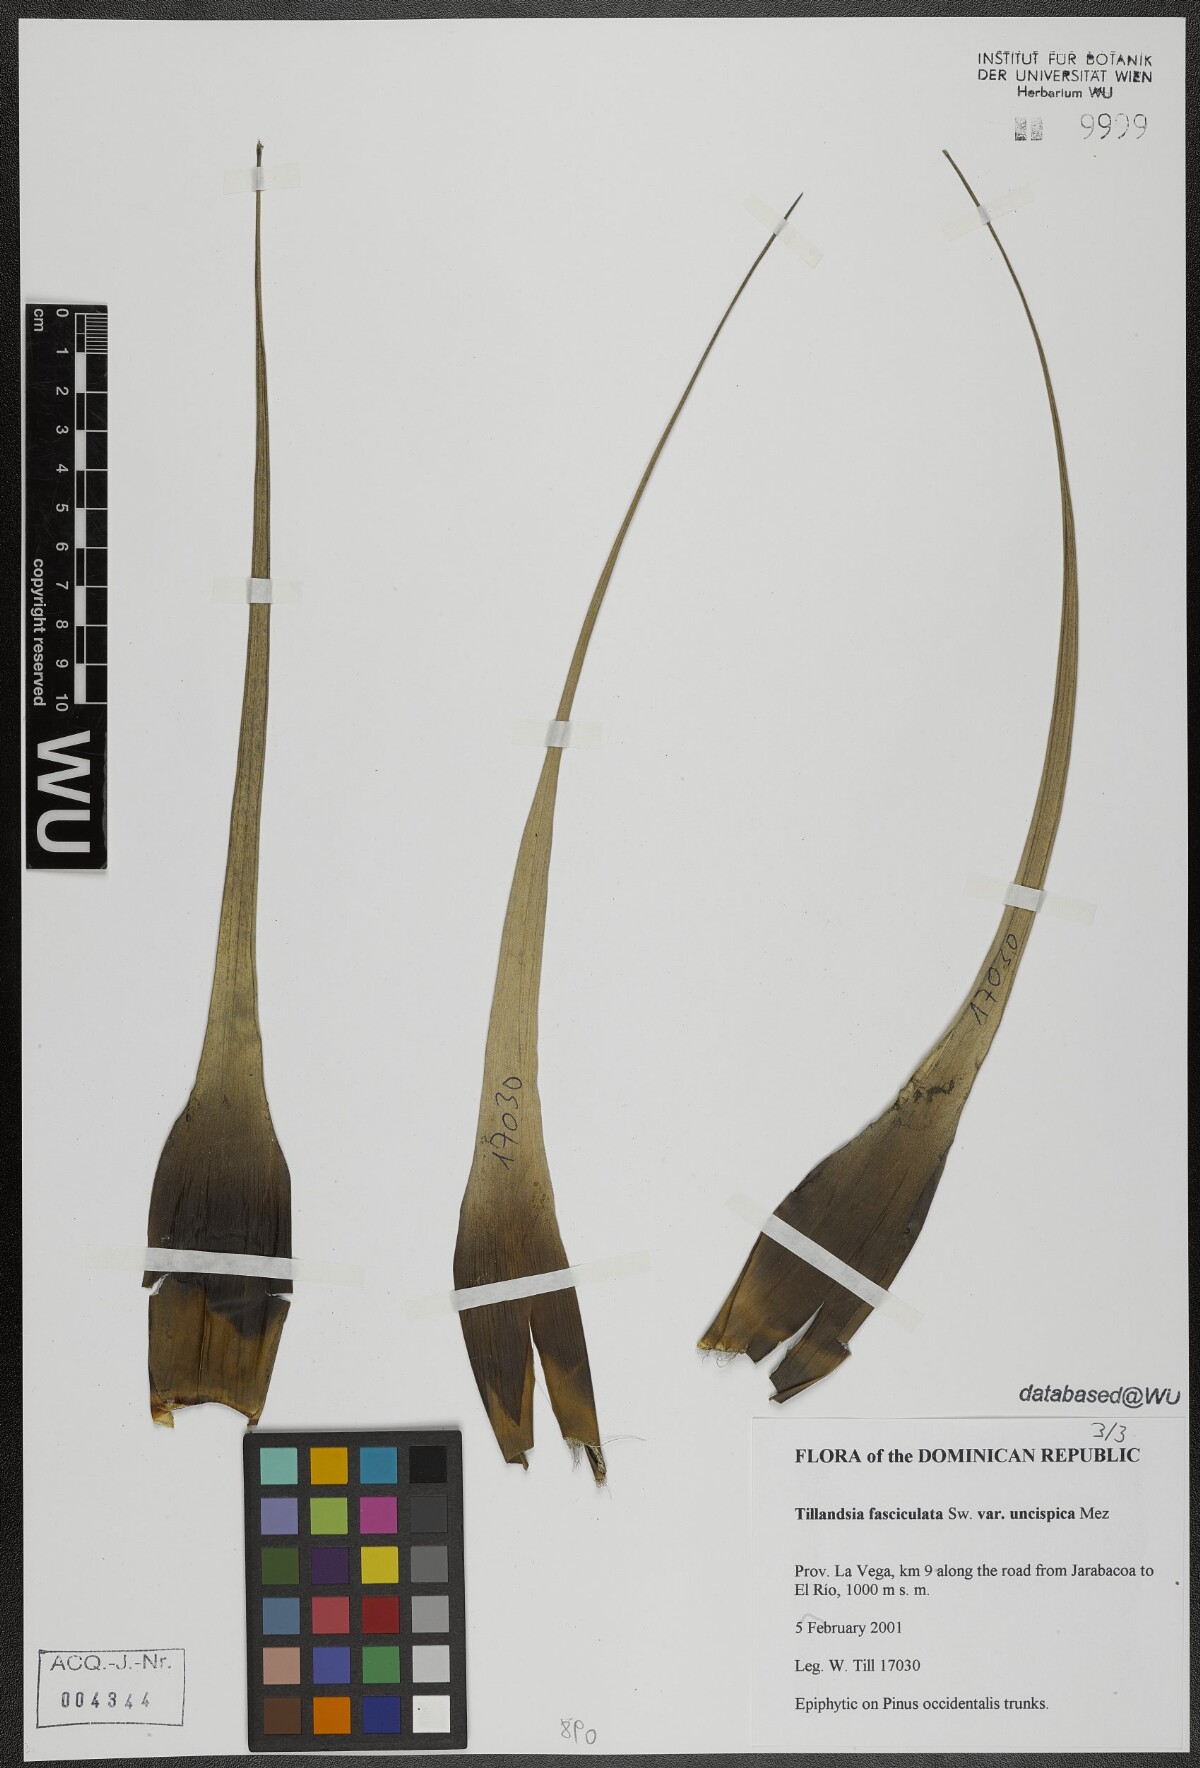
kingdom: Plantae
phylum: Tracheophyta
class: Liliopsida
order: Poales
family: Bromeliaceae
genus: Tillandsia
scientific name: Tillandsia fasciculata
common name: Giant airplant
